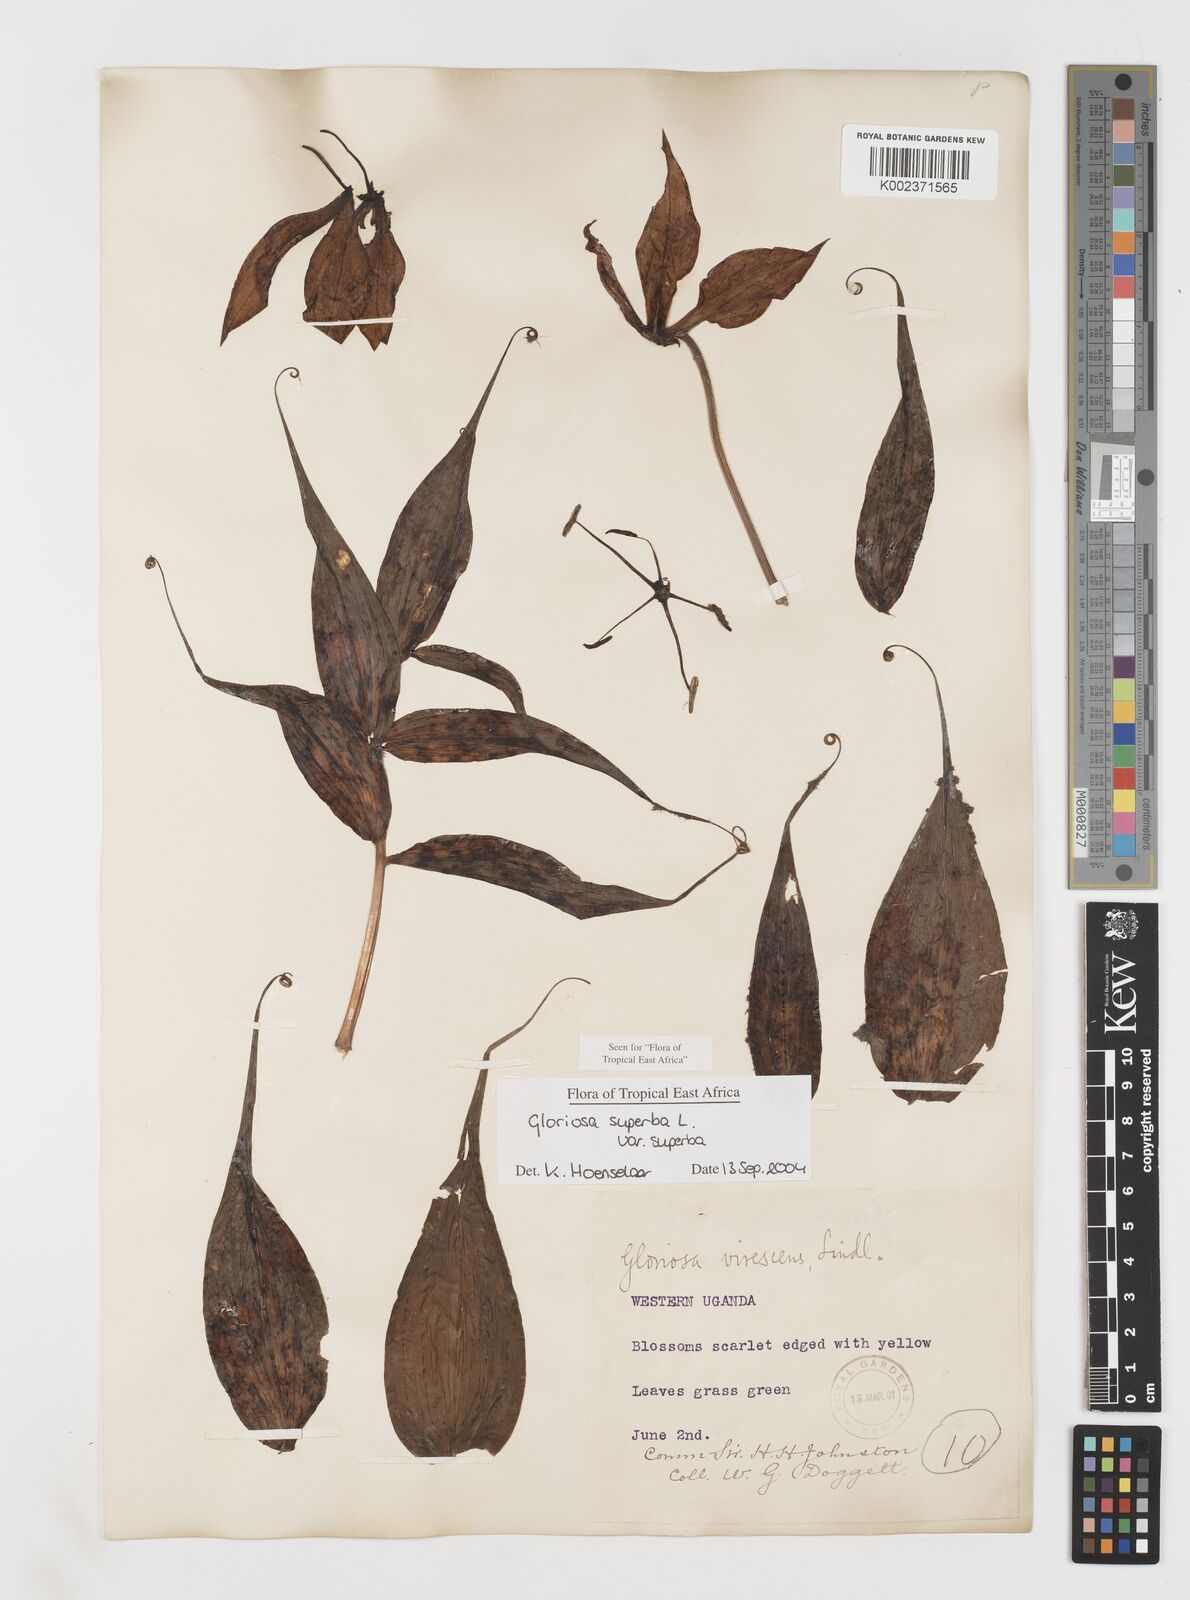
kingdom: Plantae
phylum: Tracheophyta
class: Liliopsida
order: Liliales
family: Colchicaceae
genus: Gloriosa
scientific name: Gloriosa simplex
